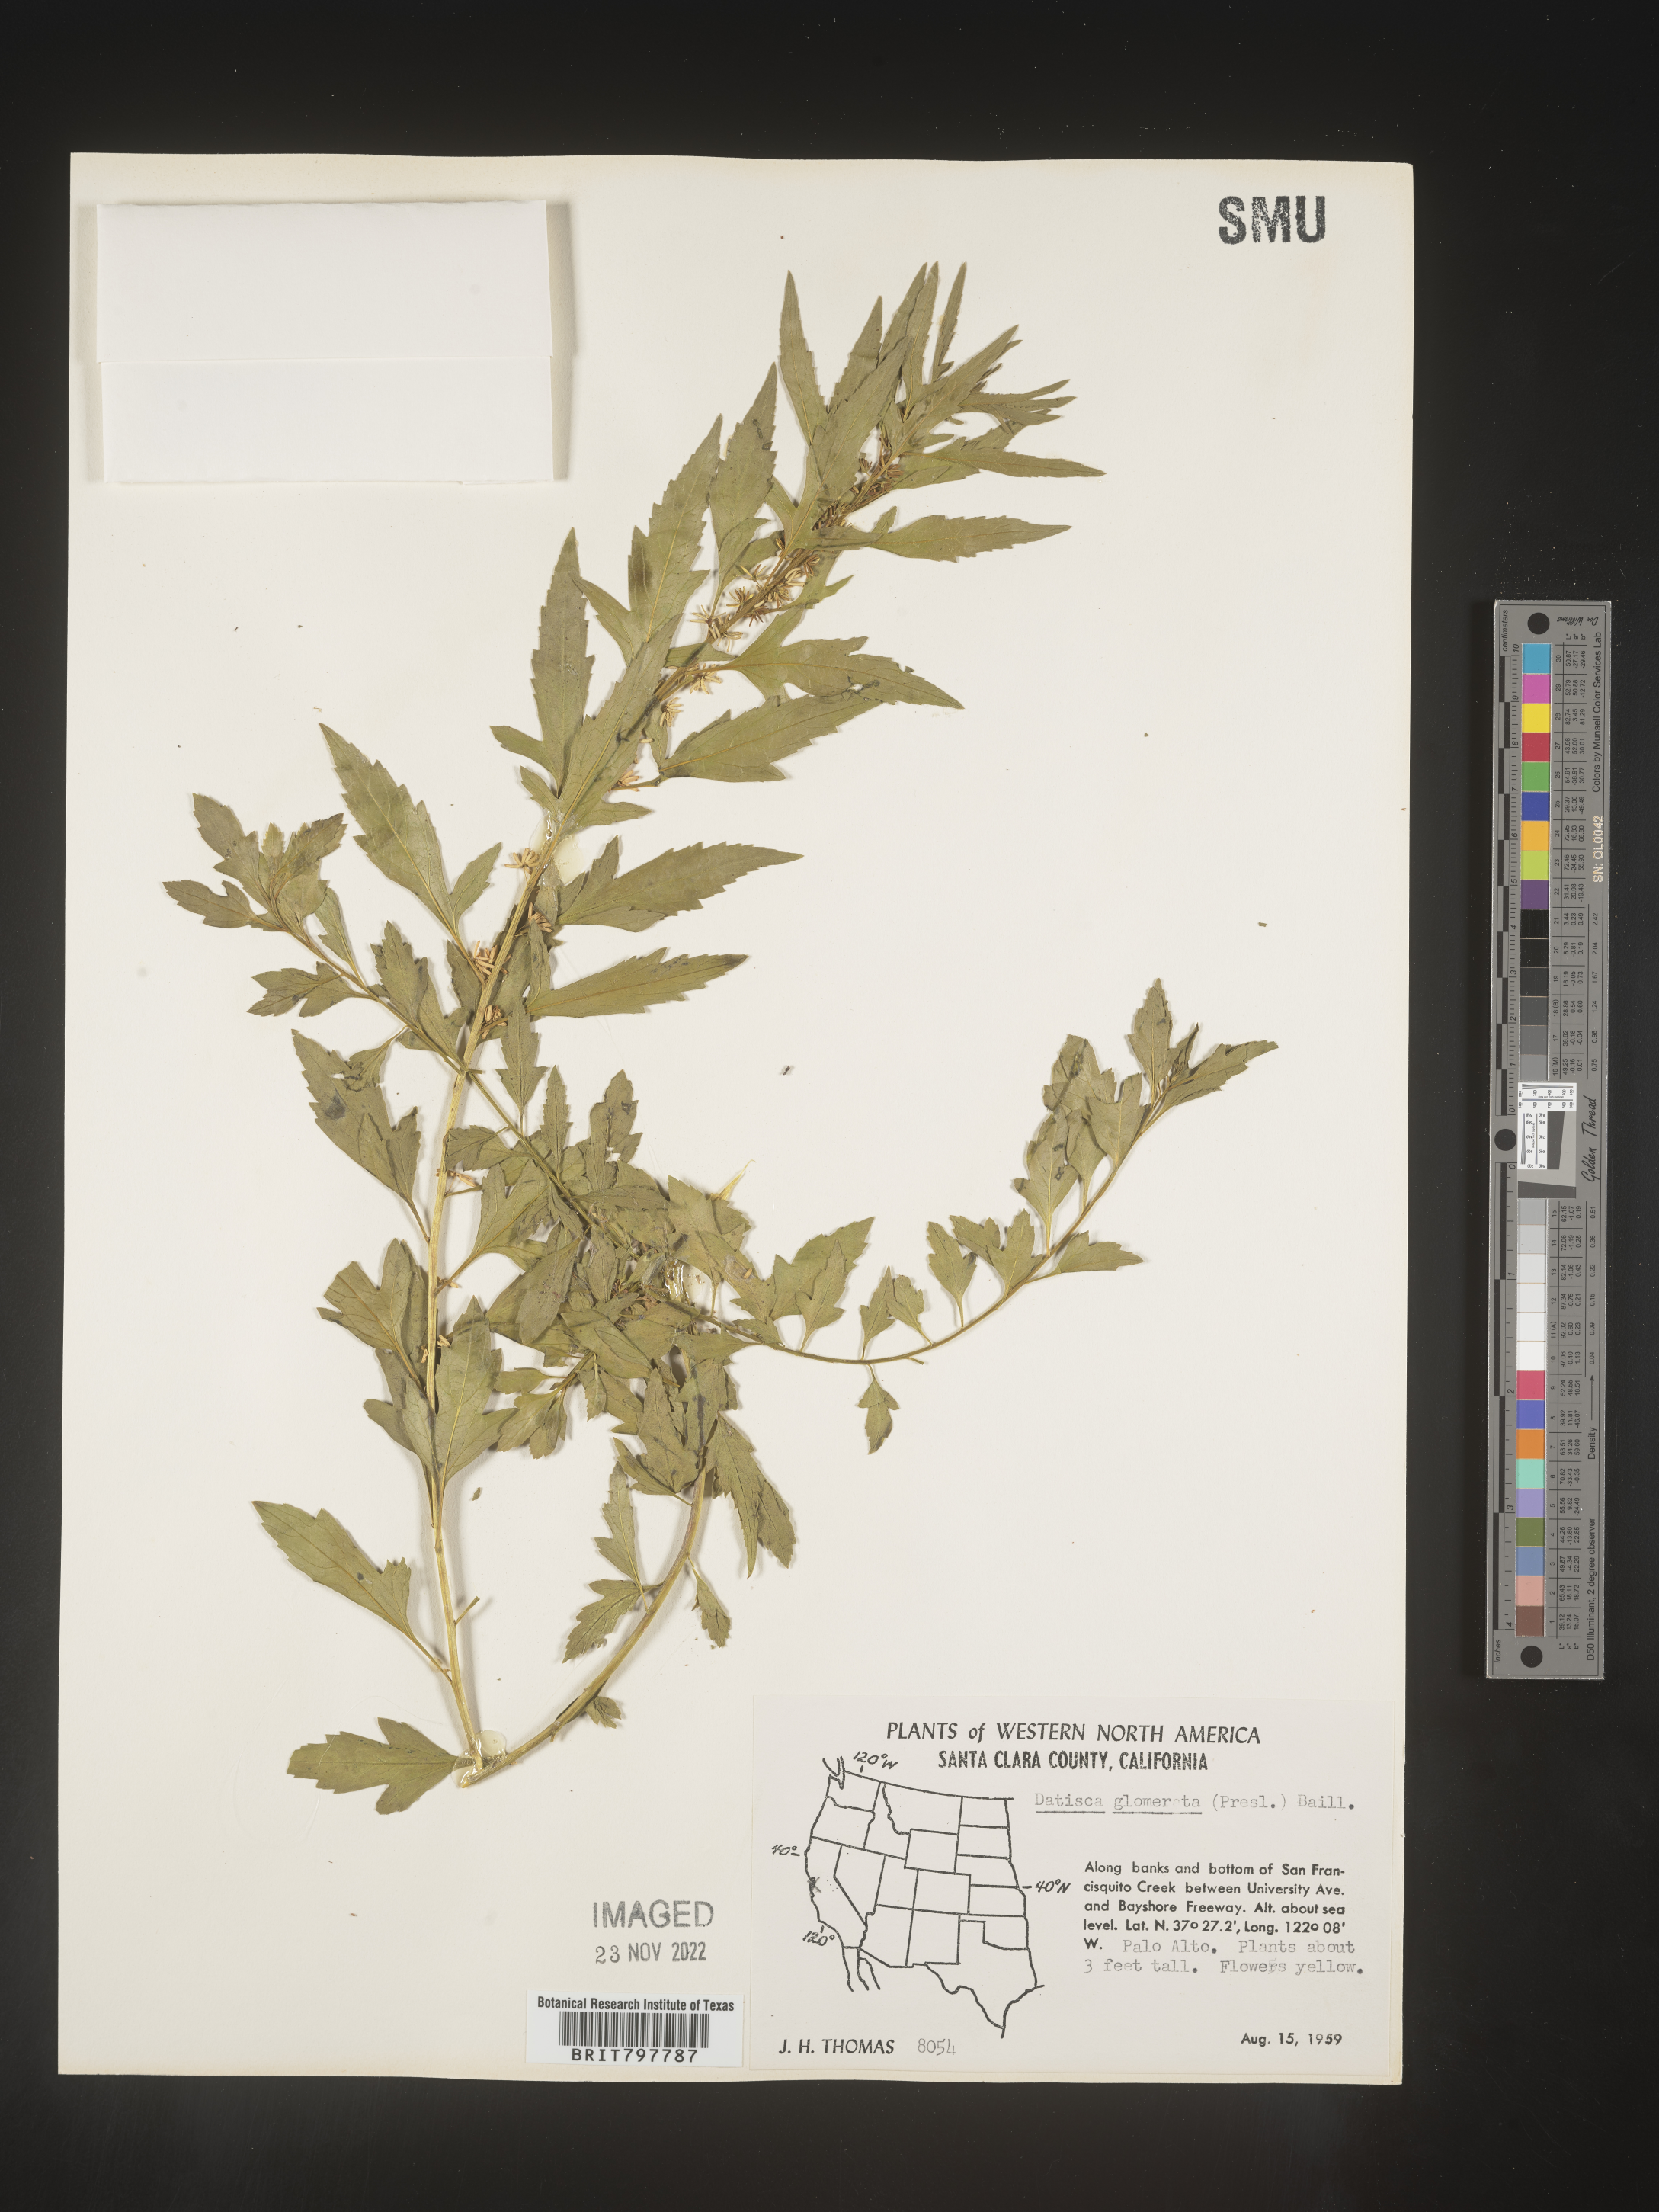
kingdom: Plantae
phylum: Tracheophyta
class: Magnoliopsida
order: Cucurbitales
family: Datiscaceae
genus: Datisca
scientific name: Datisca
